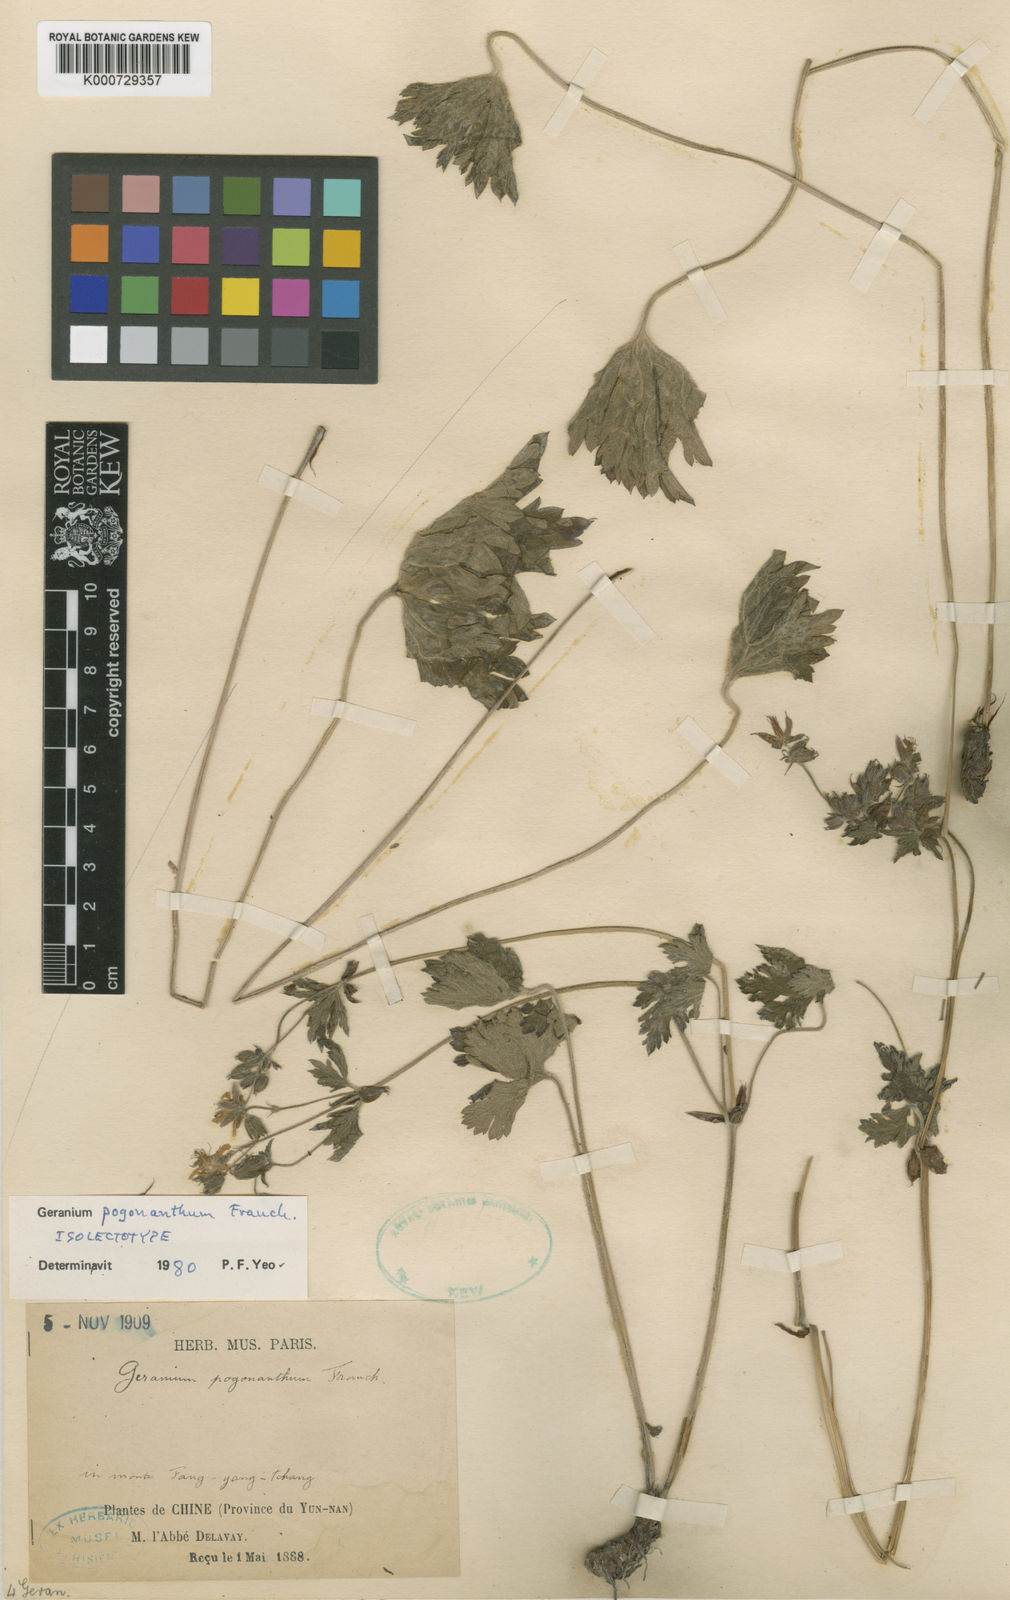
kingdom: Plantae
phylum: Tracheophyta
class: Magnoliopsida
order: Geraniales
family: Geraniaceae
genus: Geranium
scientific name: Geranium pogonanthum
